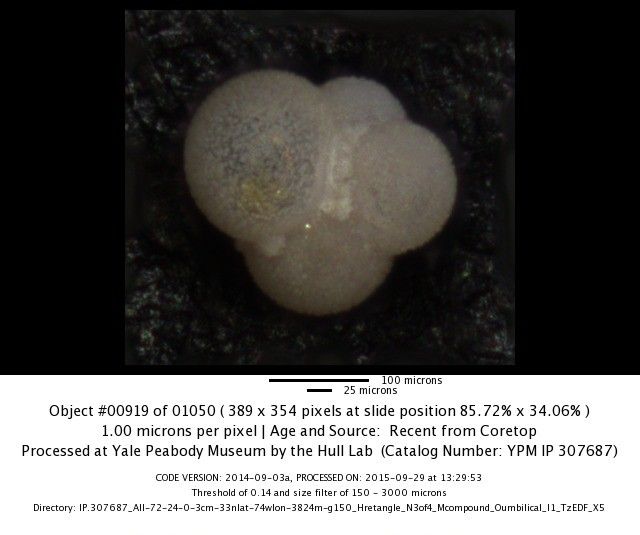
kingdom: Chromista
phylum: Foraminifera
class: Globothalamea
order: Rotaliida
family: Globigerinitidae
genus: Globigerinita
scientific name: Globigerinita glutinata
